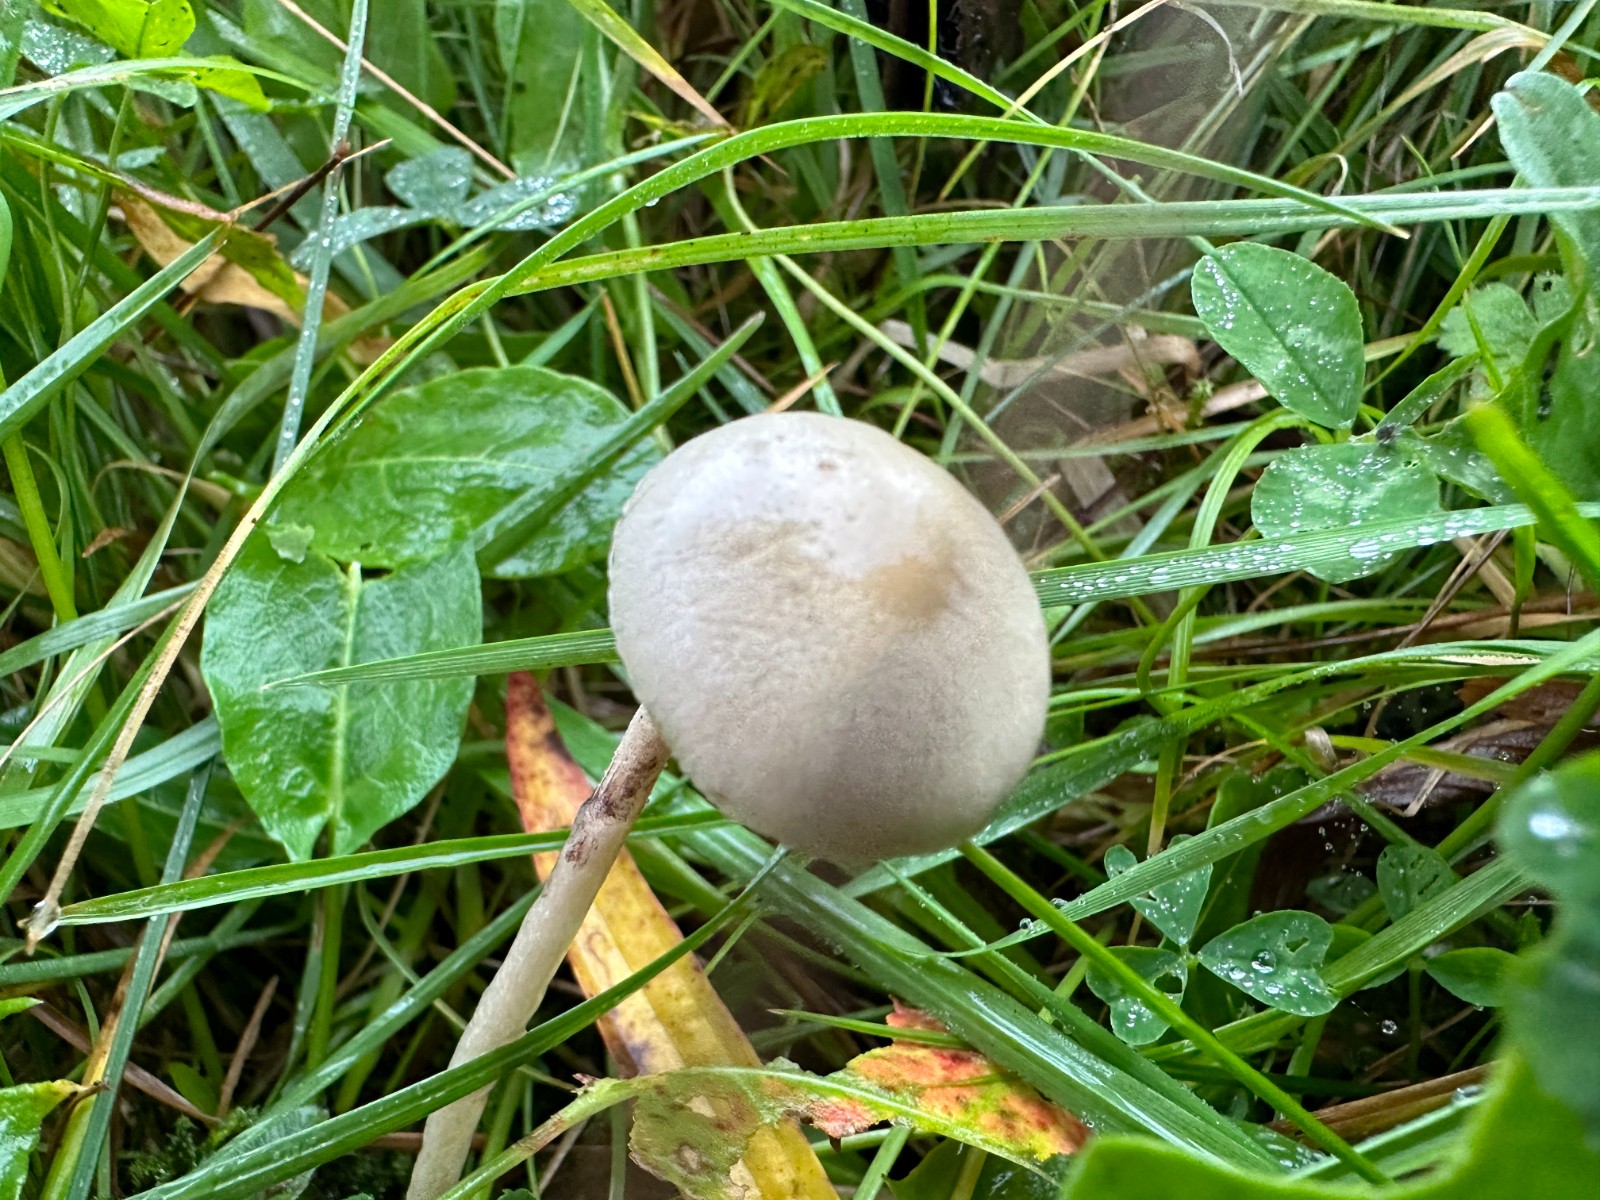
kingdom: Fungi
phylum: Basidiomycota
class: Agaricomycetes
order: Agaricales
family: Strophariaceae
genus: Protostropharia
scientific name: Protostropharia semiglobata
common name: halvkugleformet bredblad
